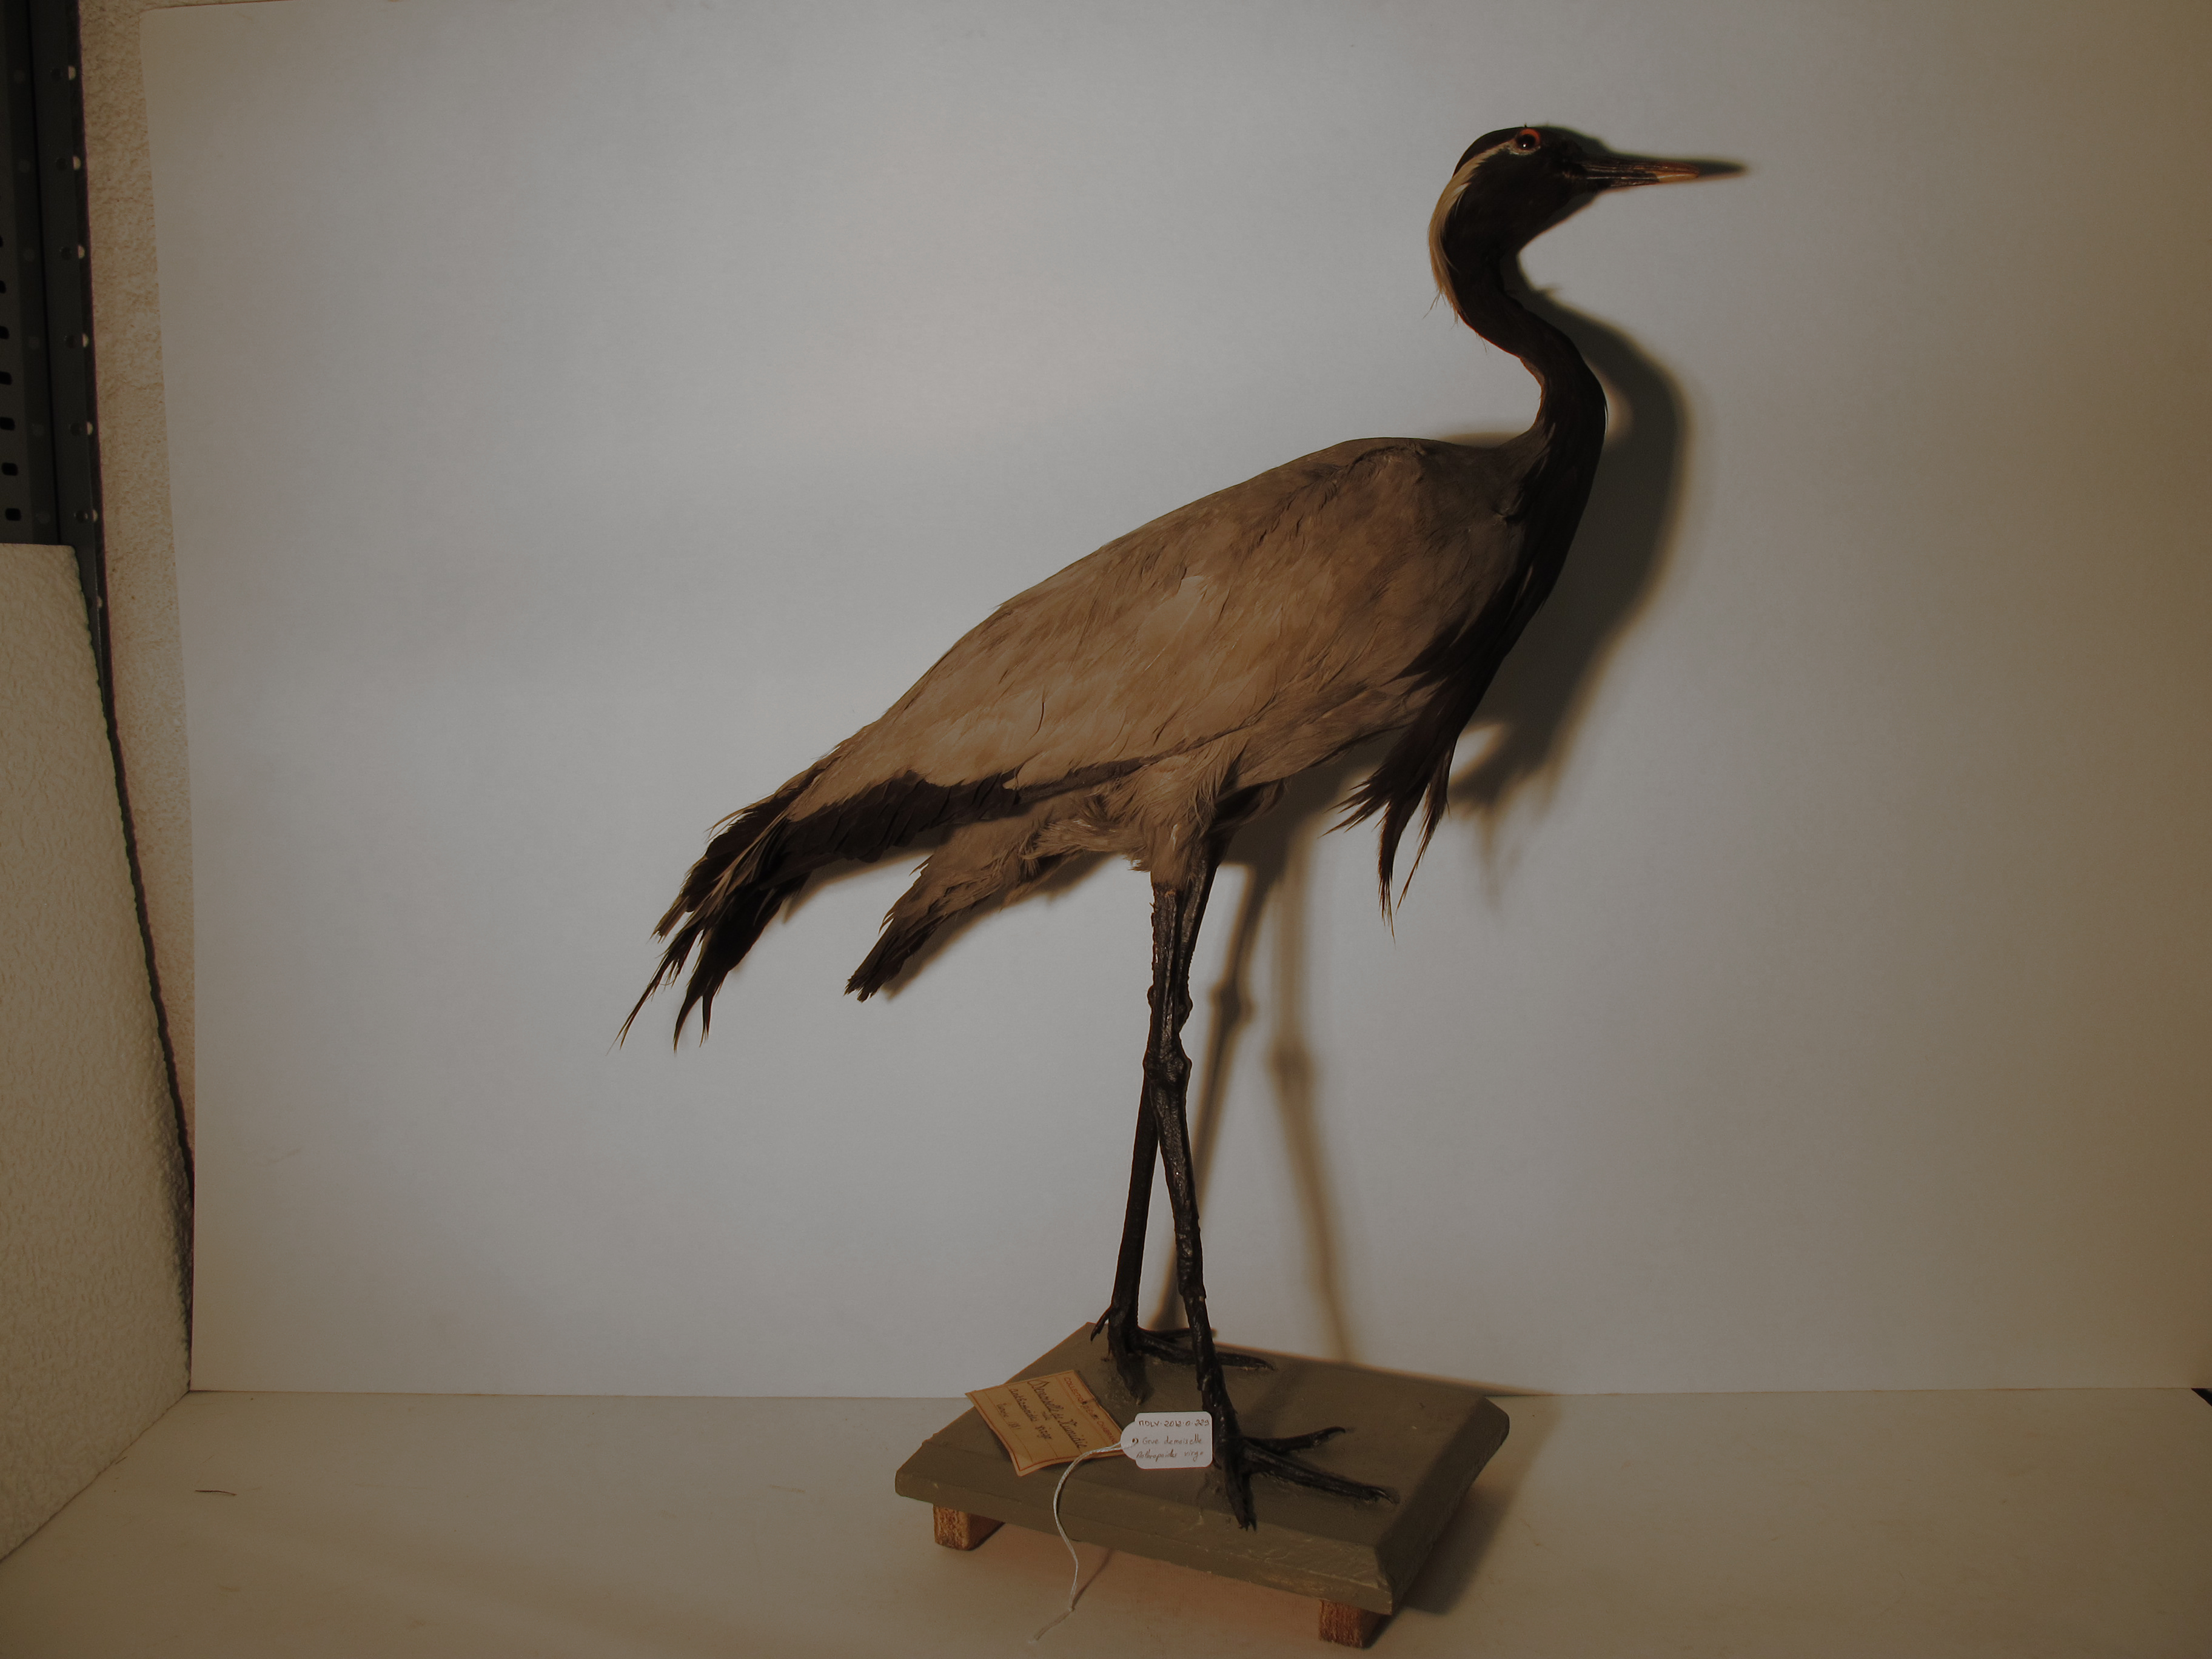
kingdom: Animalia
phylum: Chordata
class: Aves
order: Gruiformes
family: Gruidae
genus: Anthropoides
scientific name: Anthropoides virgo
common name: Demoiselle Crane
